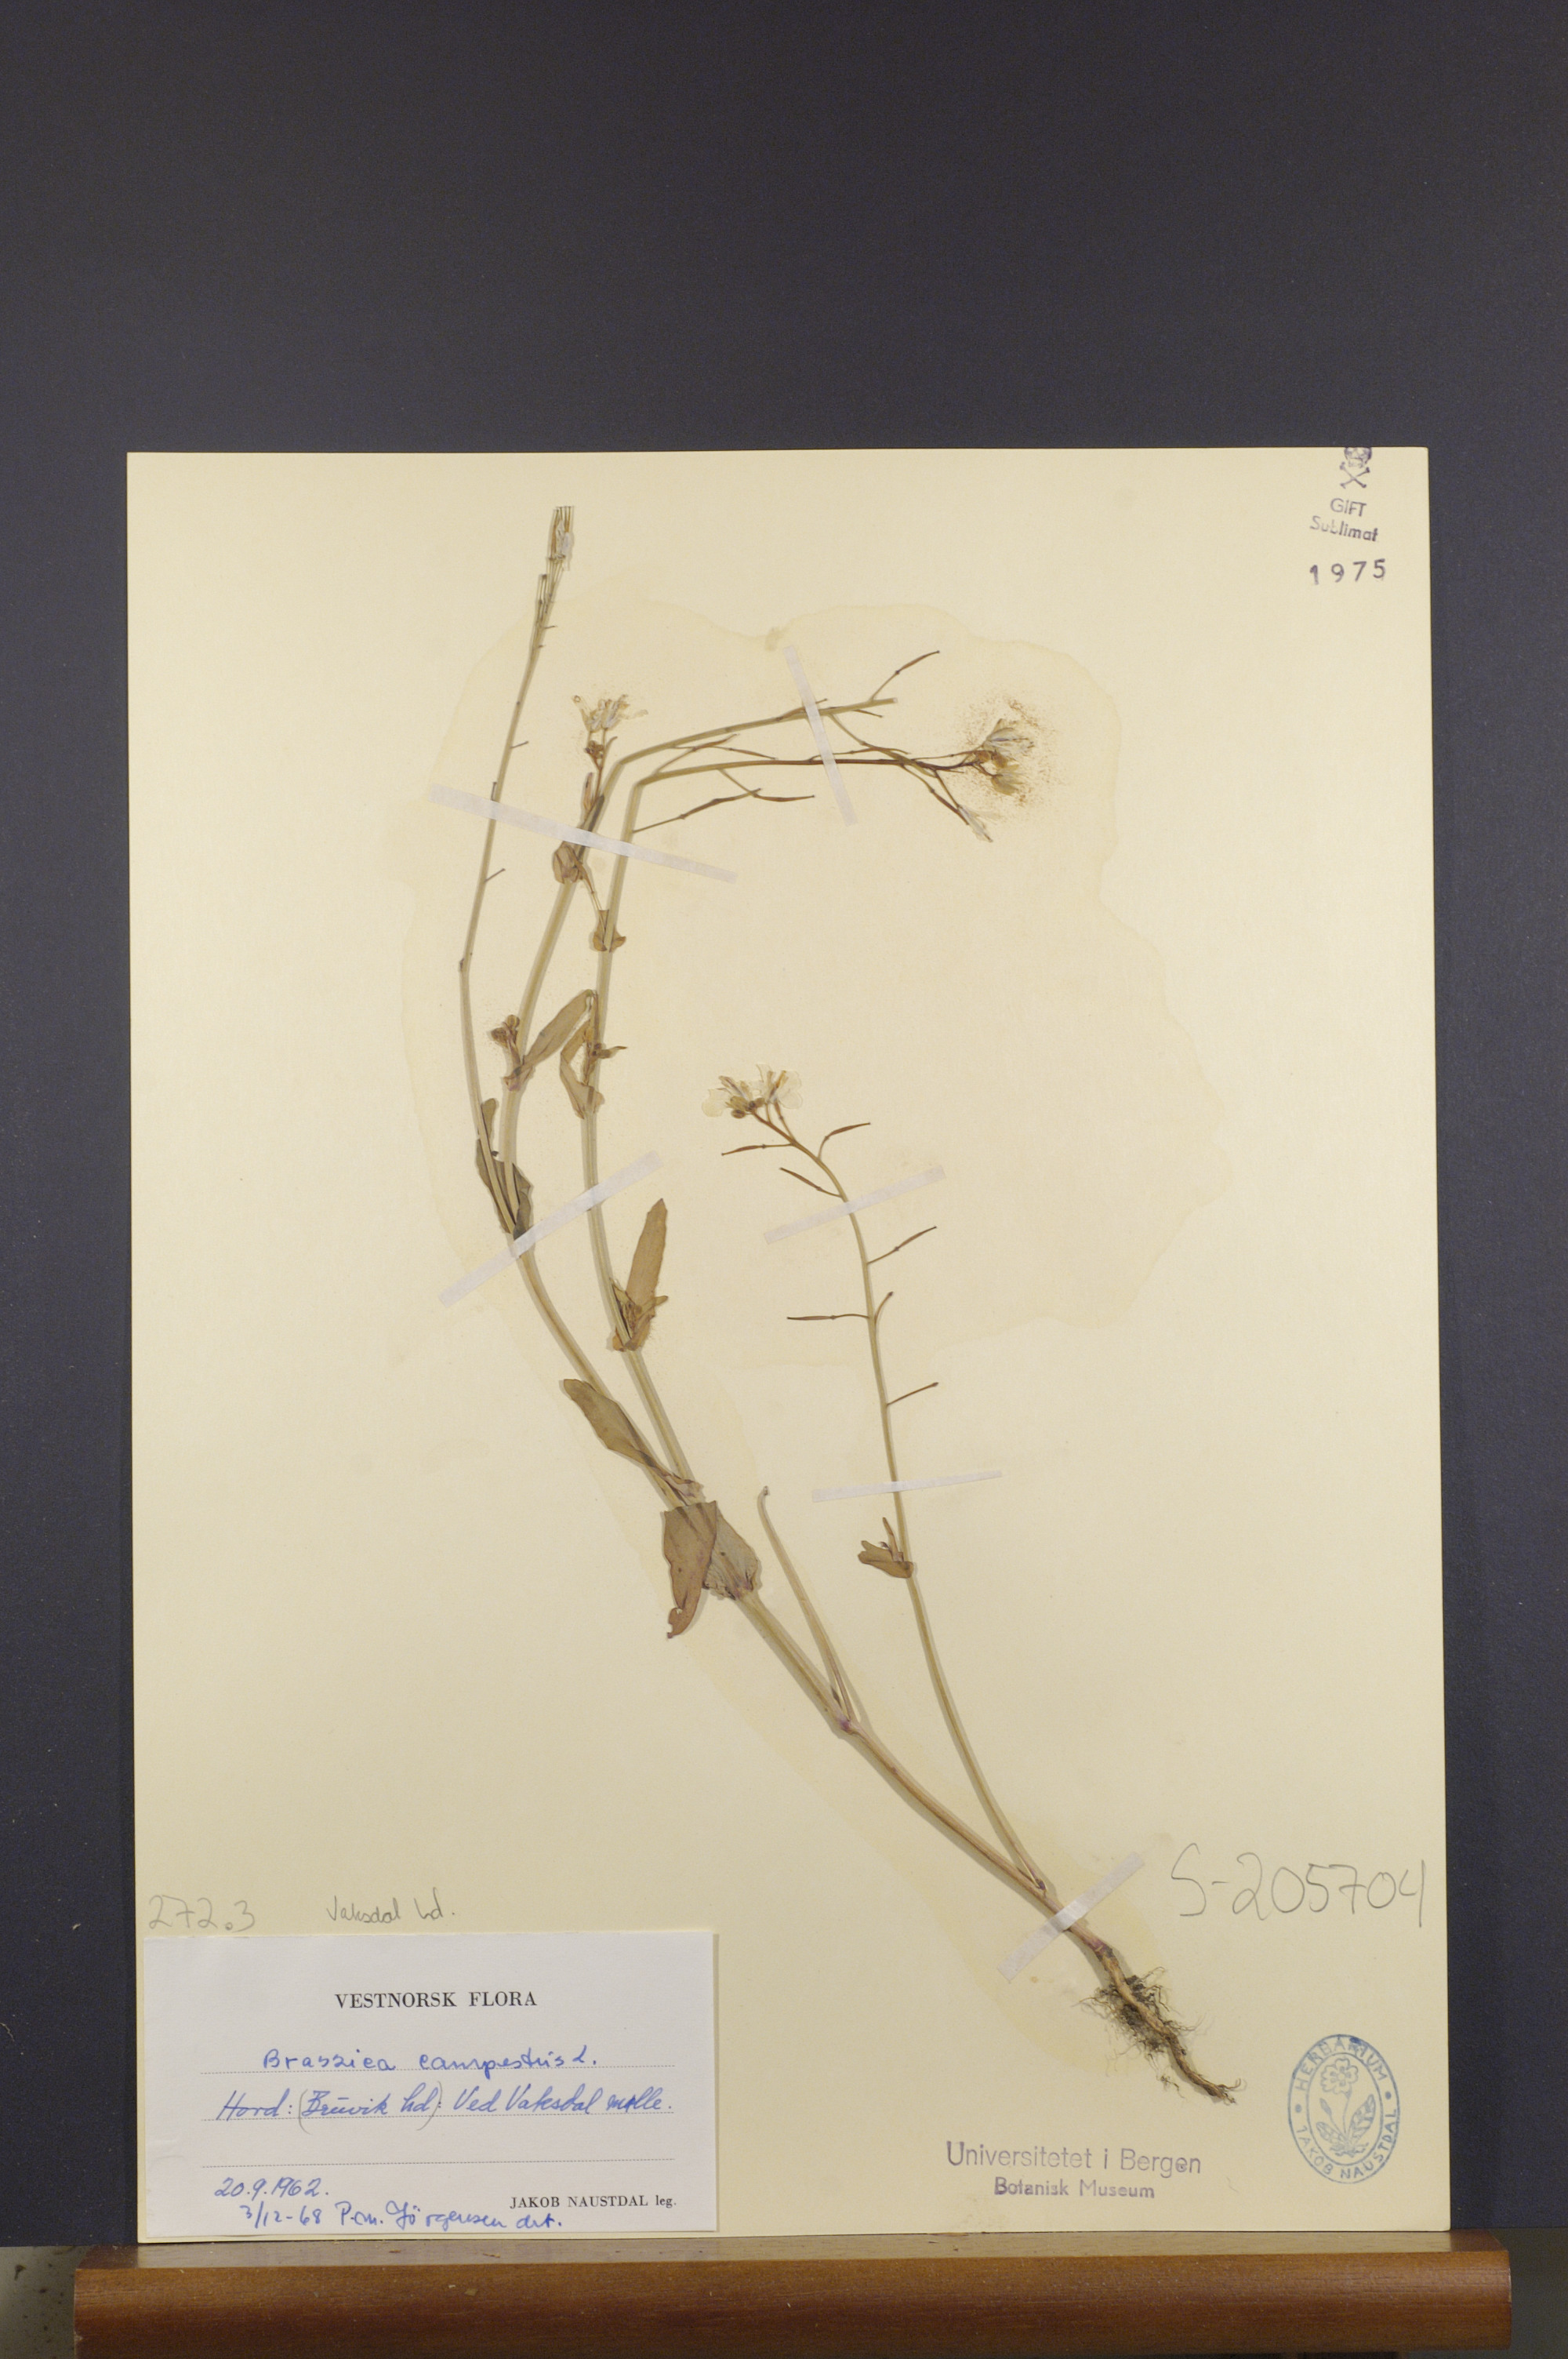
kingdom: Plantae
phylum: Tracheophyta
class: Magnoliopsida
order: Brassicales
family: Brassicaceae
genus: Brassica
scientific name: Brassica rapa
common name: Field mustard
